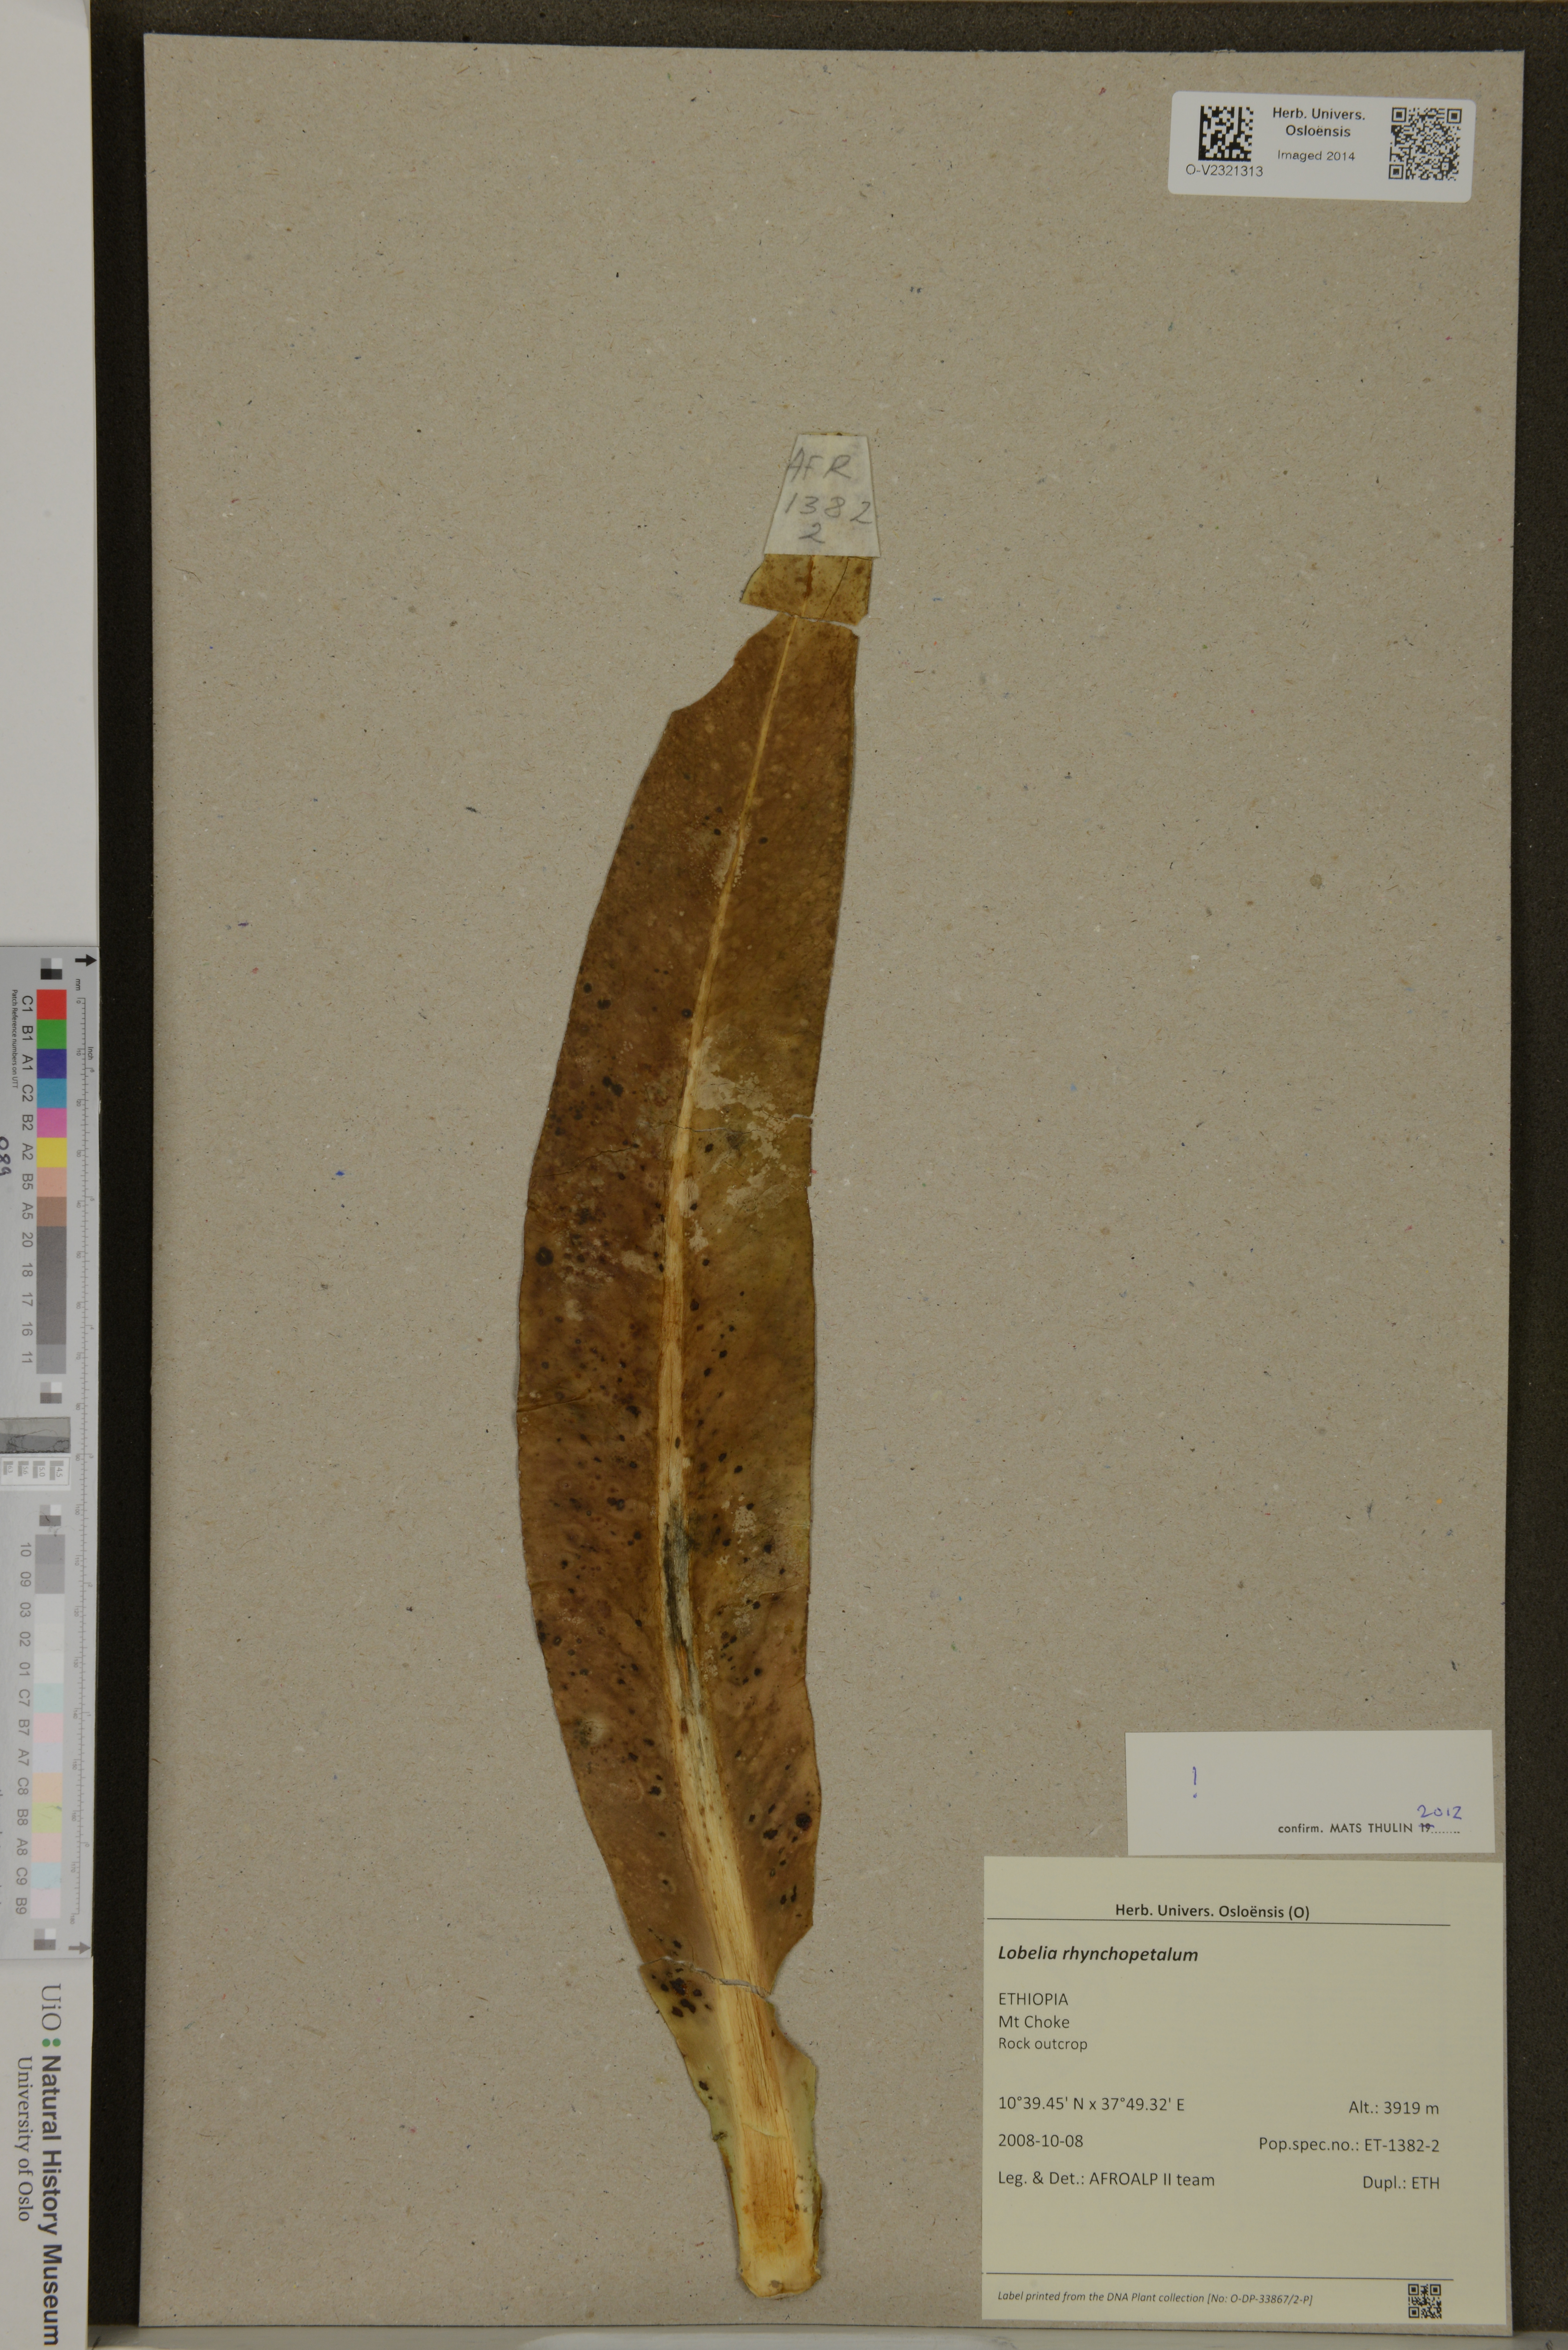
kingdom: Plantae
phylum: Tracheophyta
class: Magnoliopsida
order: Asterales
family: Campanulaceae
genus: Lobelia
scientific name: Lobelia rhynchopetalum
